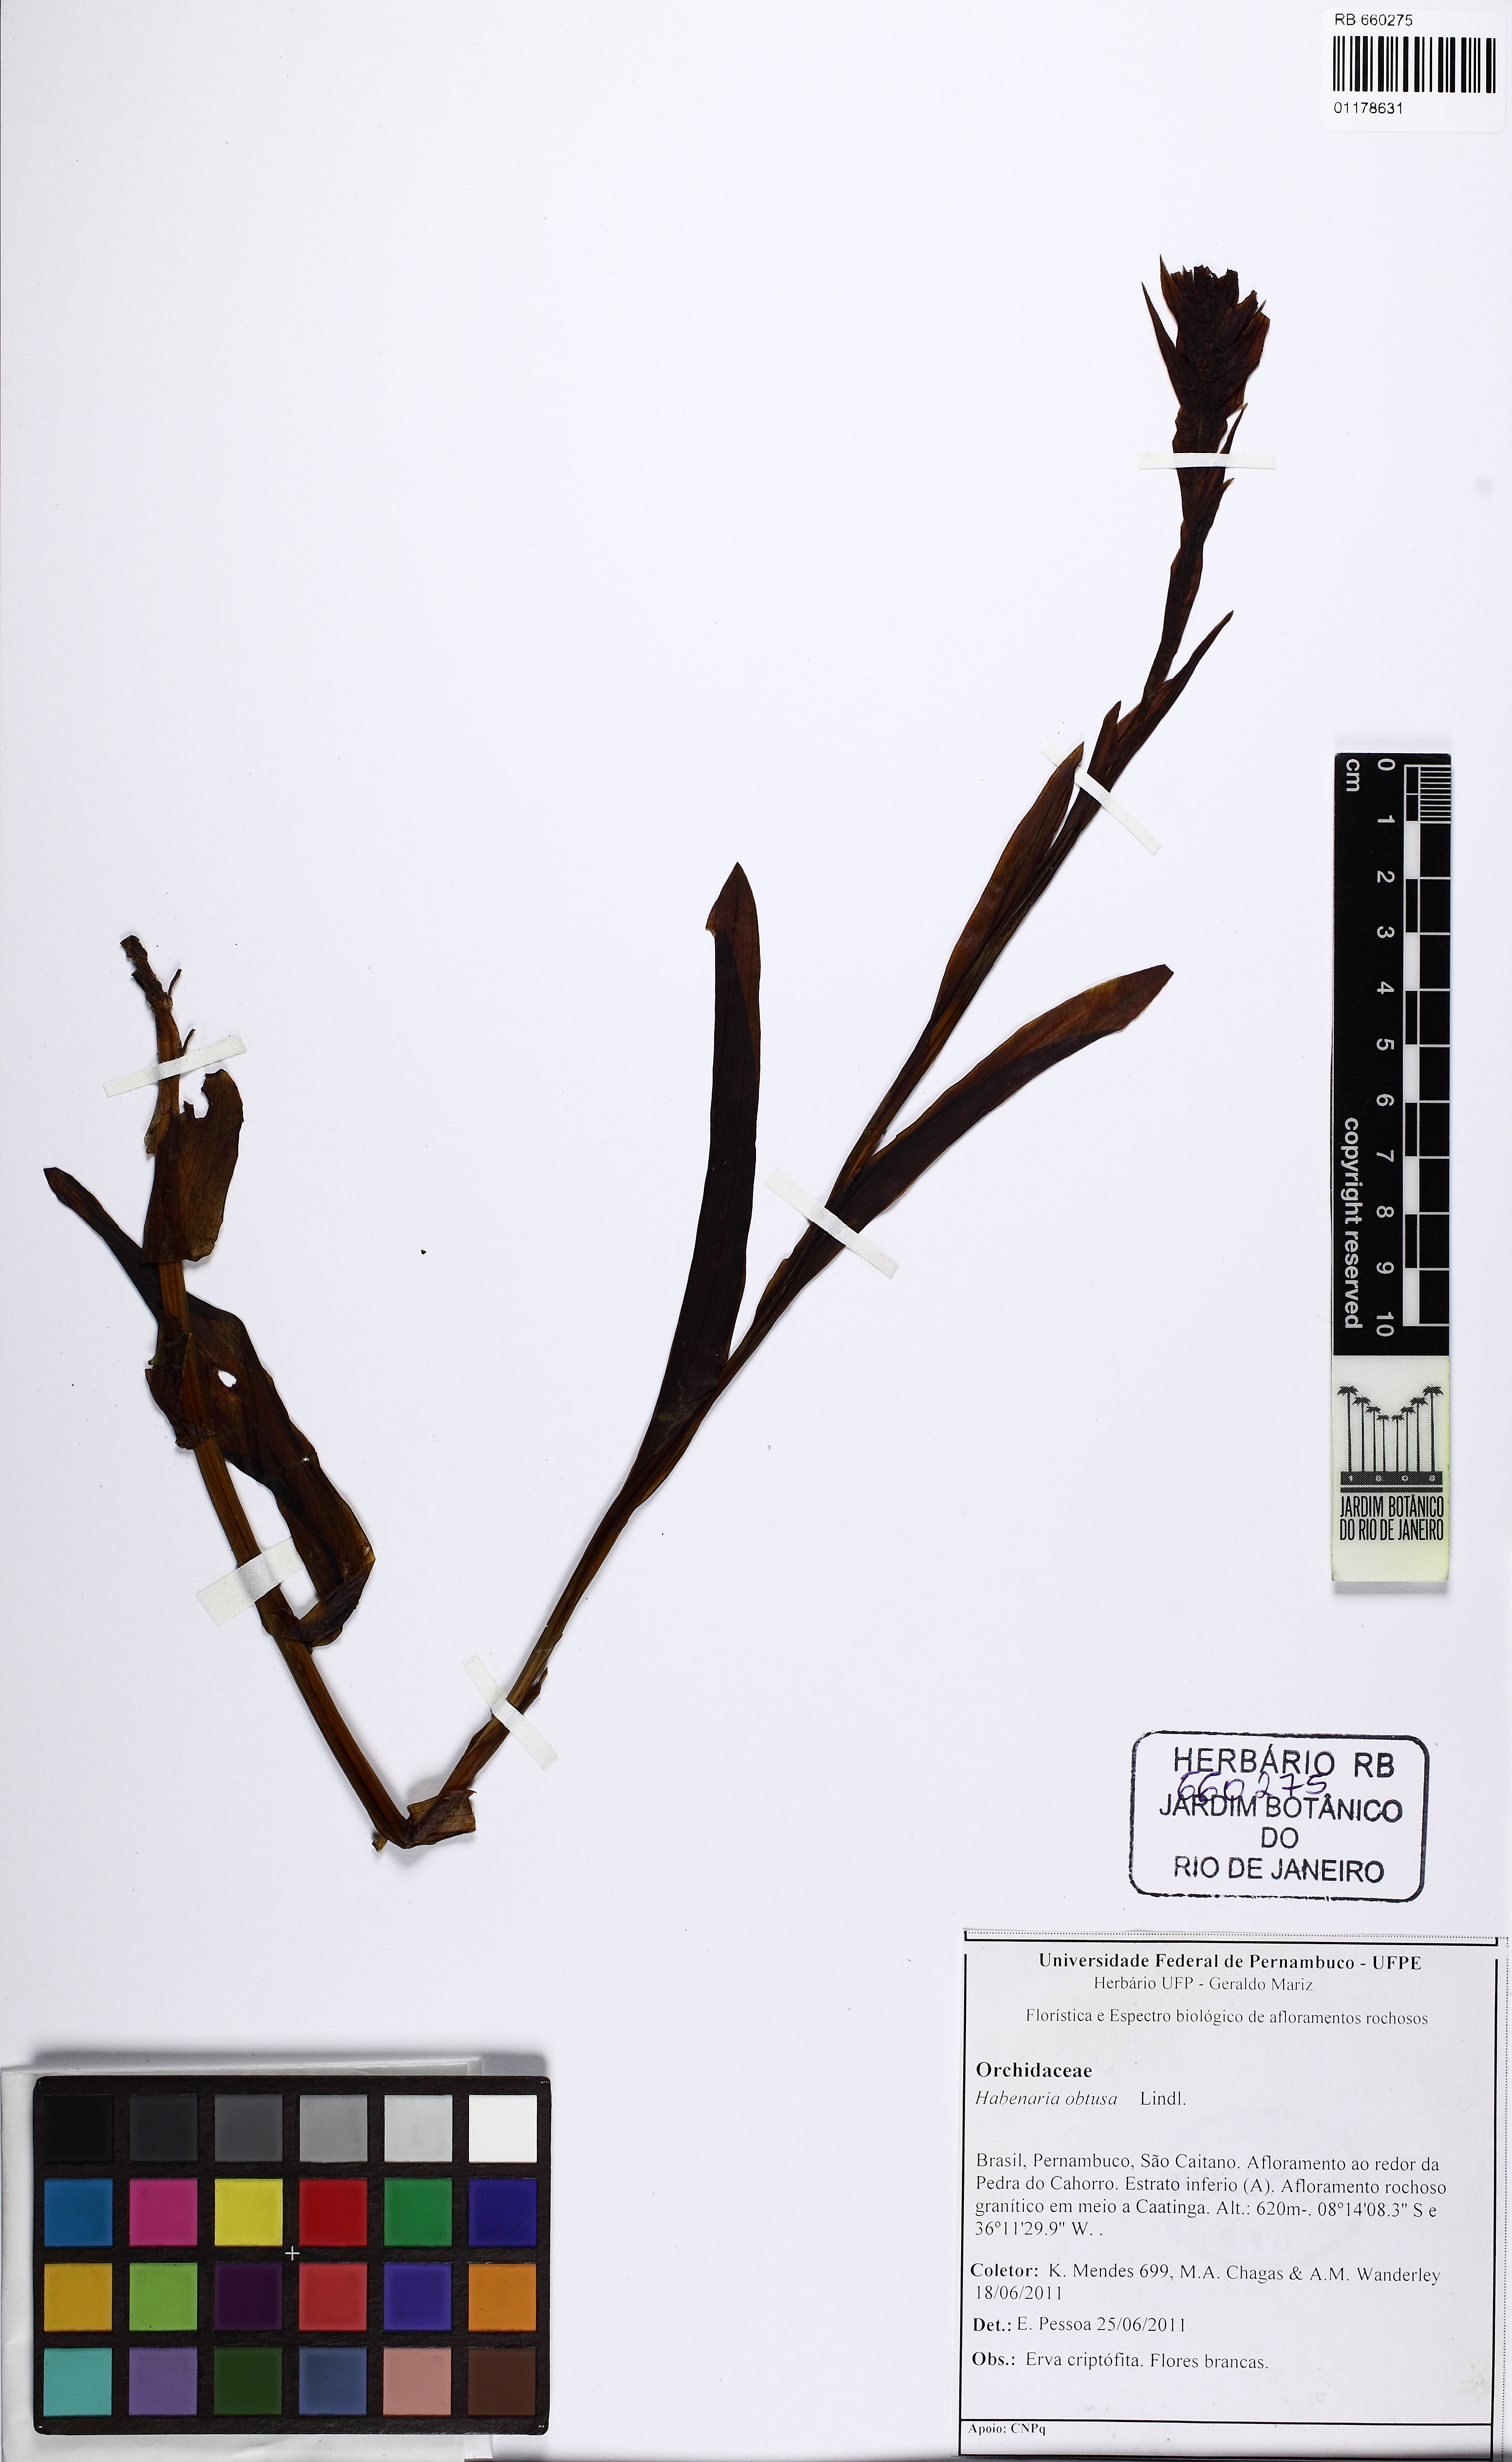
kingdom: Plantae
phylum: Tracheophyta
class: Liliopsida
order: Asparagales
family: Orchidaceae
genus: Habenaria
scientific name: Habenaria obtusa
